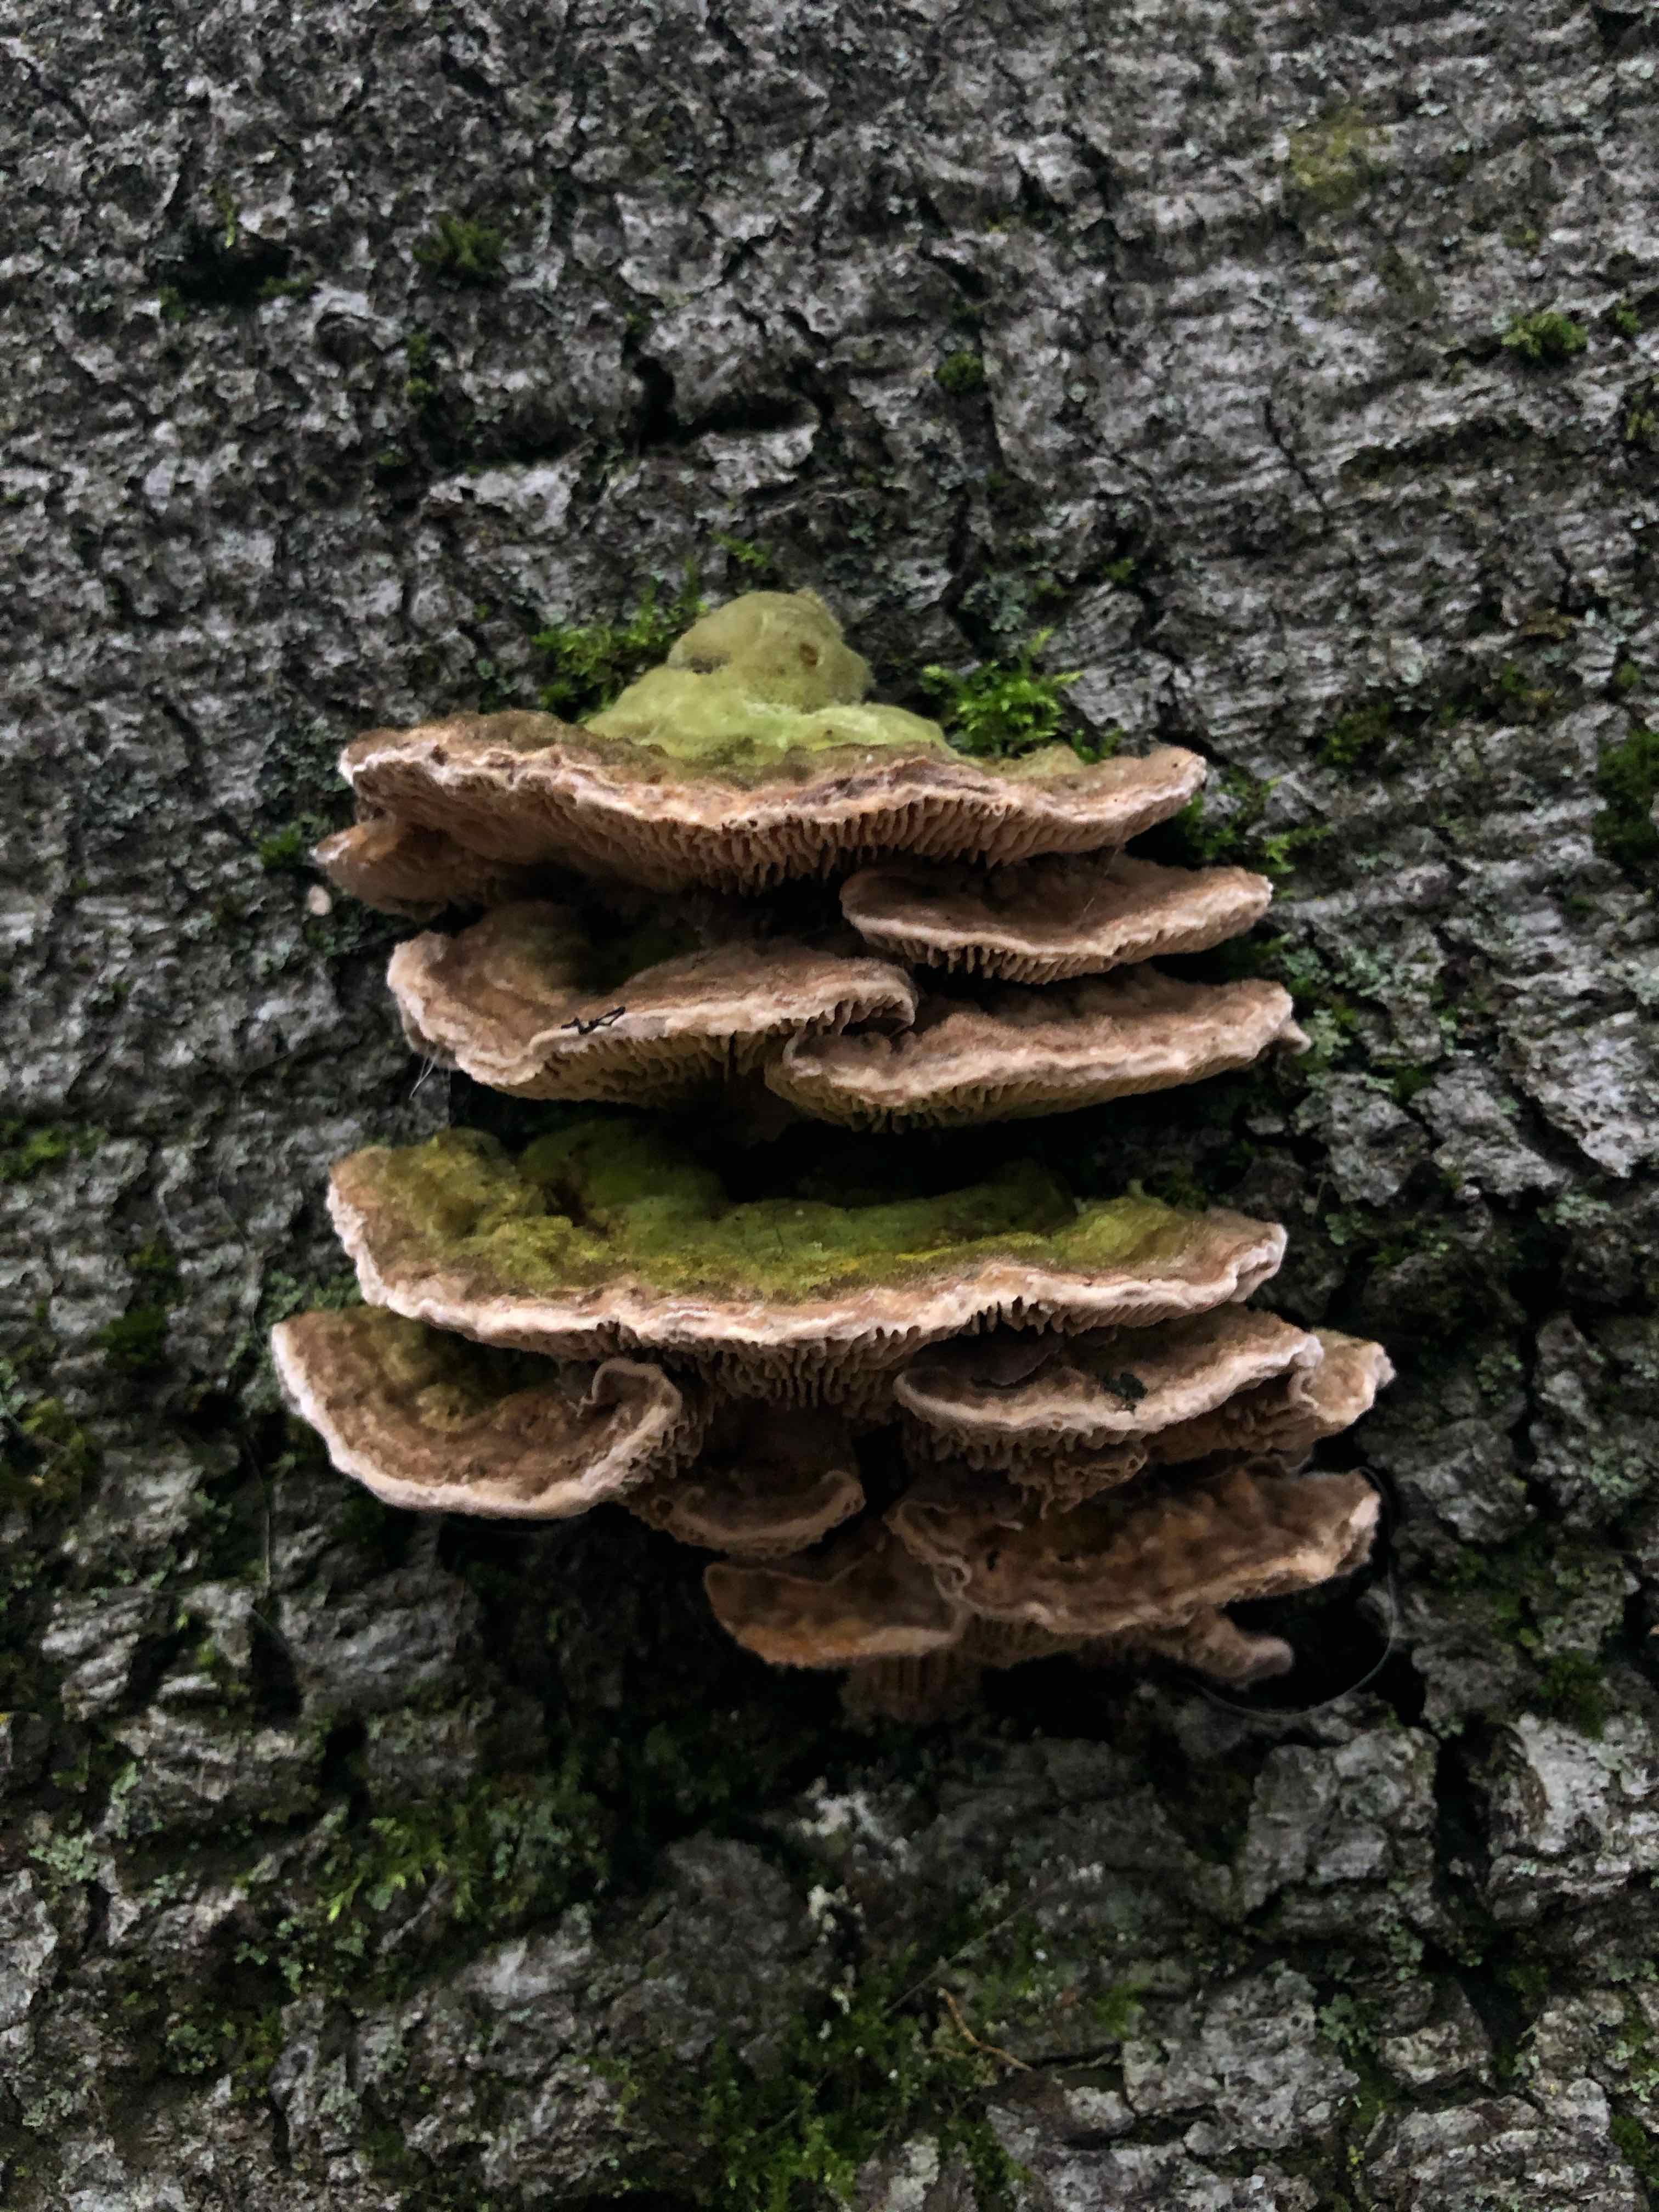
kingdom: Fungi
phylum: Basidiomycota
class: Agaricomycetes
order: Polyporales
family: Polyporaceae
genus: Lenzites
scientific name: Lenzites betulinus
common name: birke-læderporesvamp
